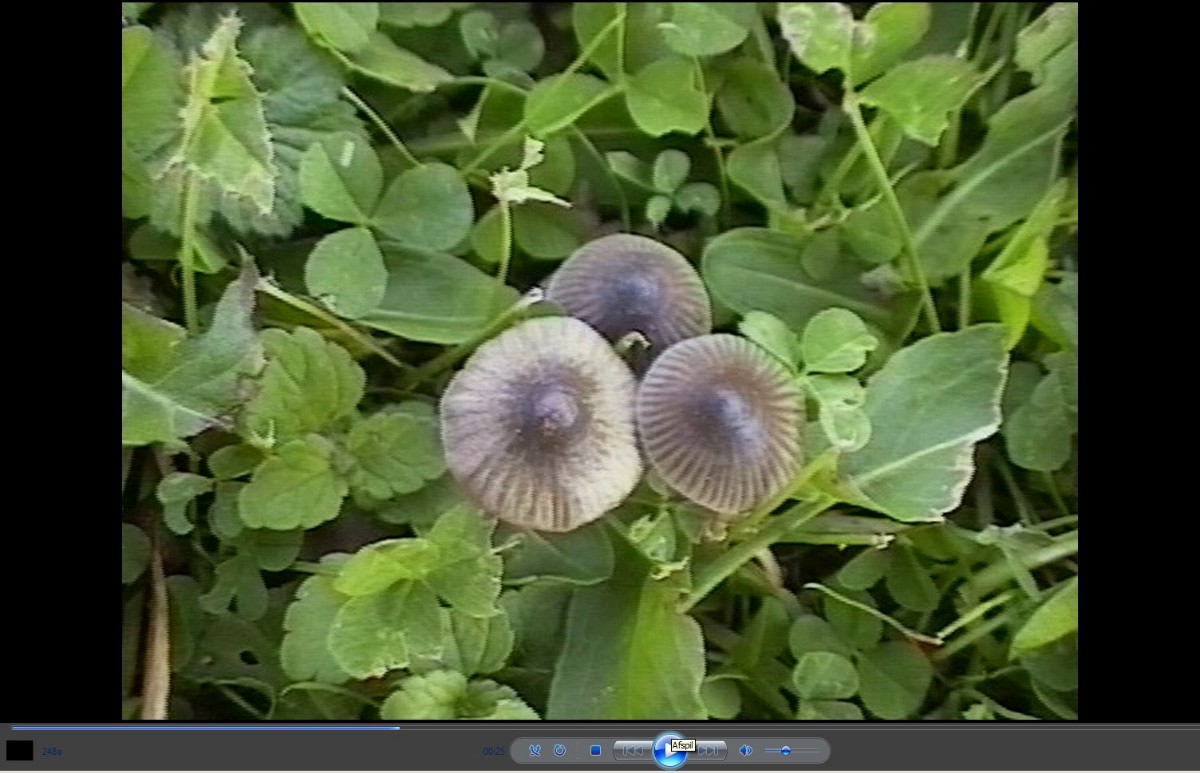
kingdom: Fungi
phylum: Basidiomycota
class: Agaricomycetes
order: Agaricales
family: Mycenaceae
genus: Mycena
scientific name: Mycena aetites
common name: plæne-huesvamp
